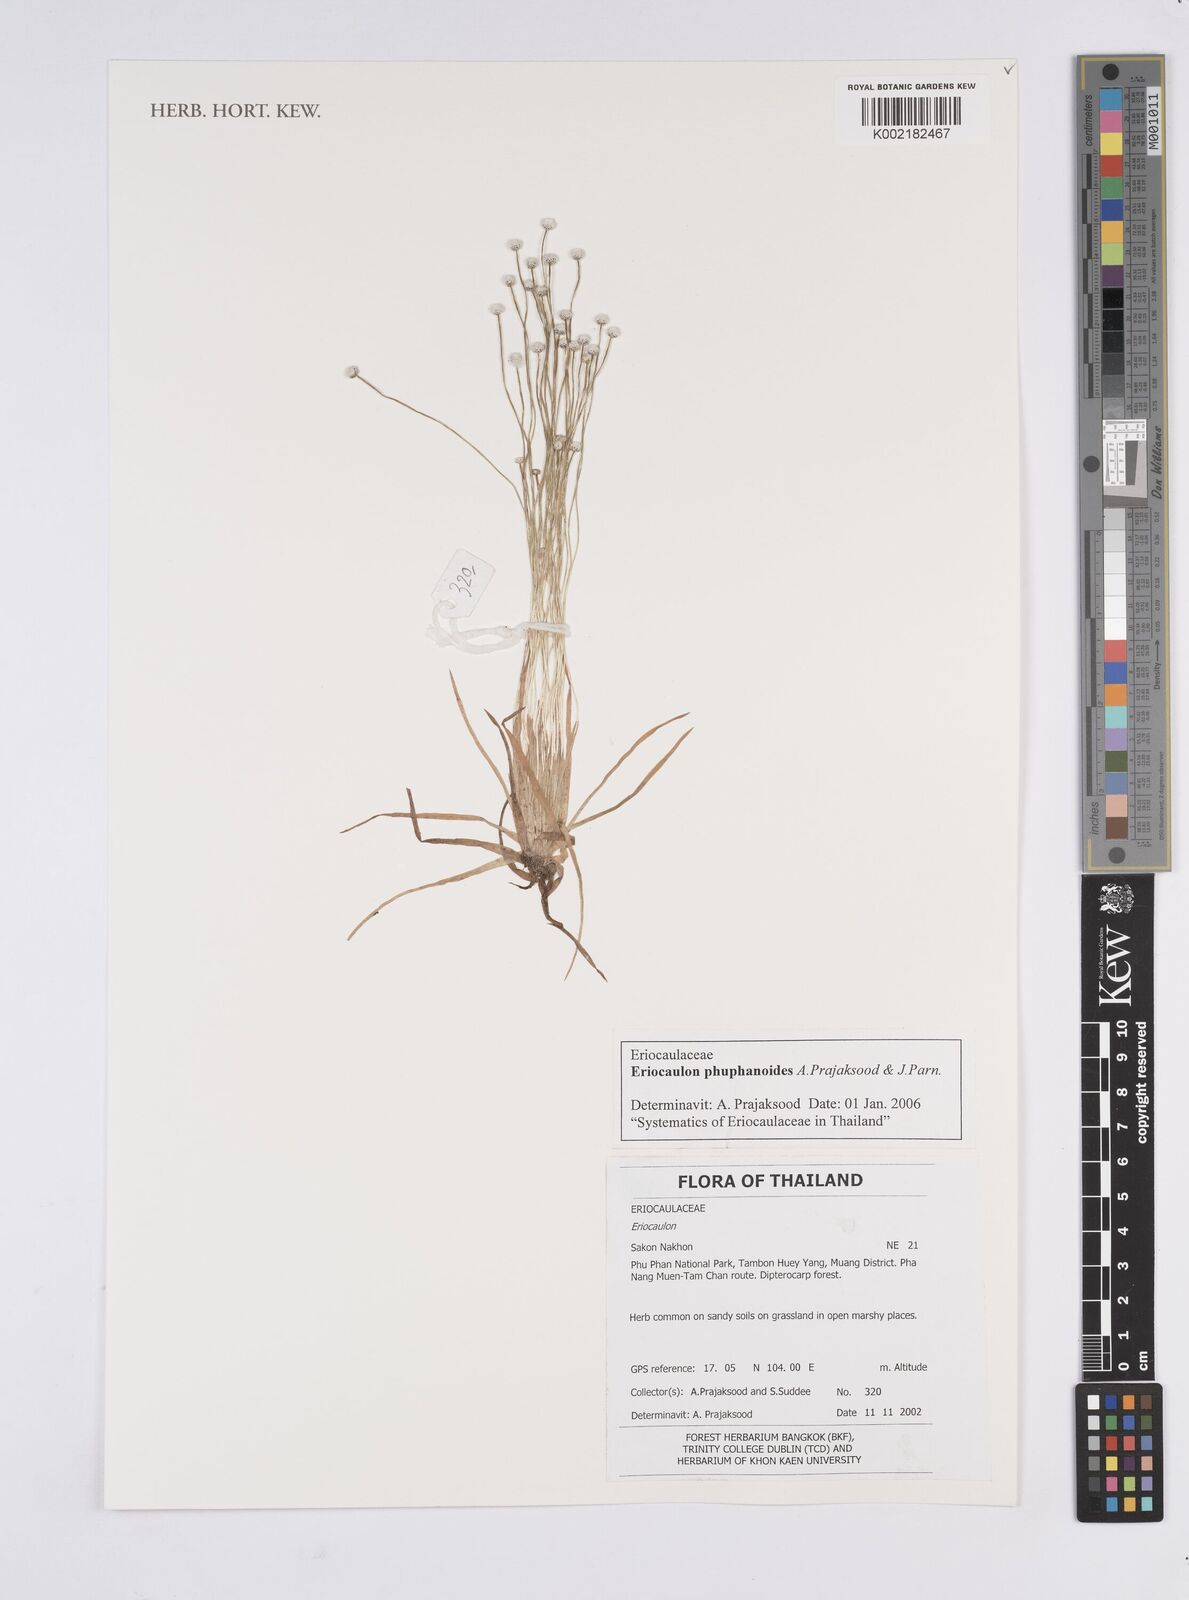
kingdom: Plantae
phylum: Tracheophyta
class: Liliopsida
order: Poales
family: Eriocaulaceae
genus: Eriocaulon
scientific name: Eriocaulon phuphanoides
